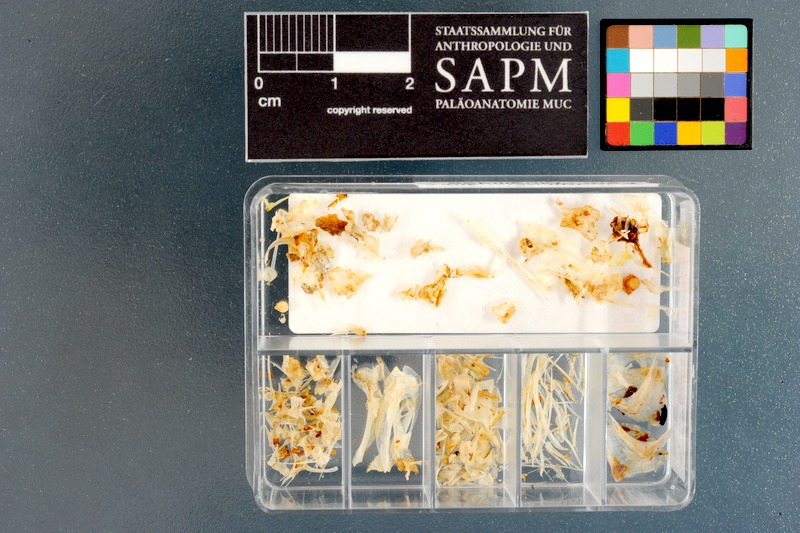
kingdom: Animalia
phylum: Chordata
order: Mugiliformes
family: Mugilidae
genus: Mugil
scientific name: Mugil cephalus
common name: Grey mullet
